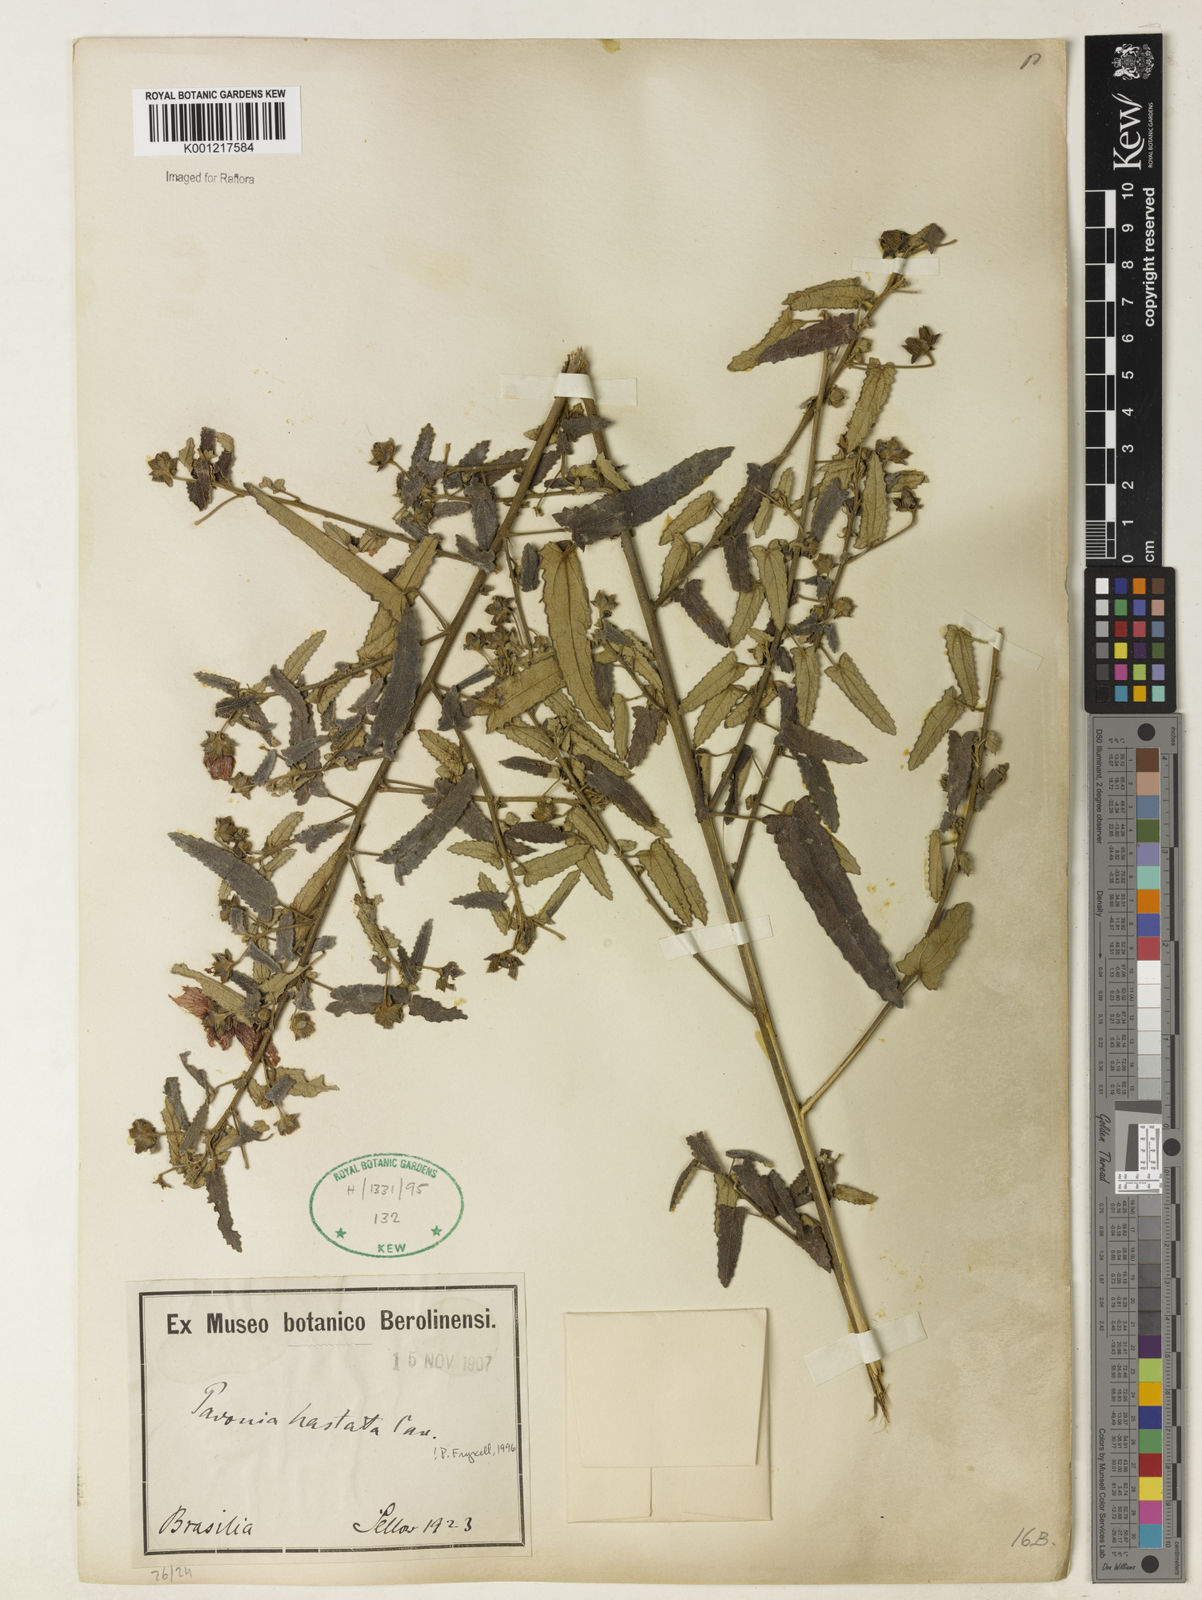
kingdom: Plantae
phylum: Tracheophyta
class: Magnoliopsida
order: Malvales
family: Malvaceae
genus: Pavonia
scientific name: Pavonia hastata
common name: Spearleaf swampmallow
